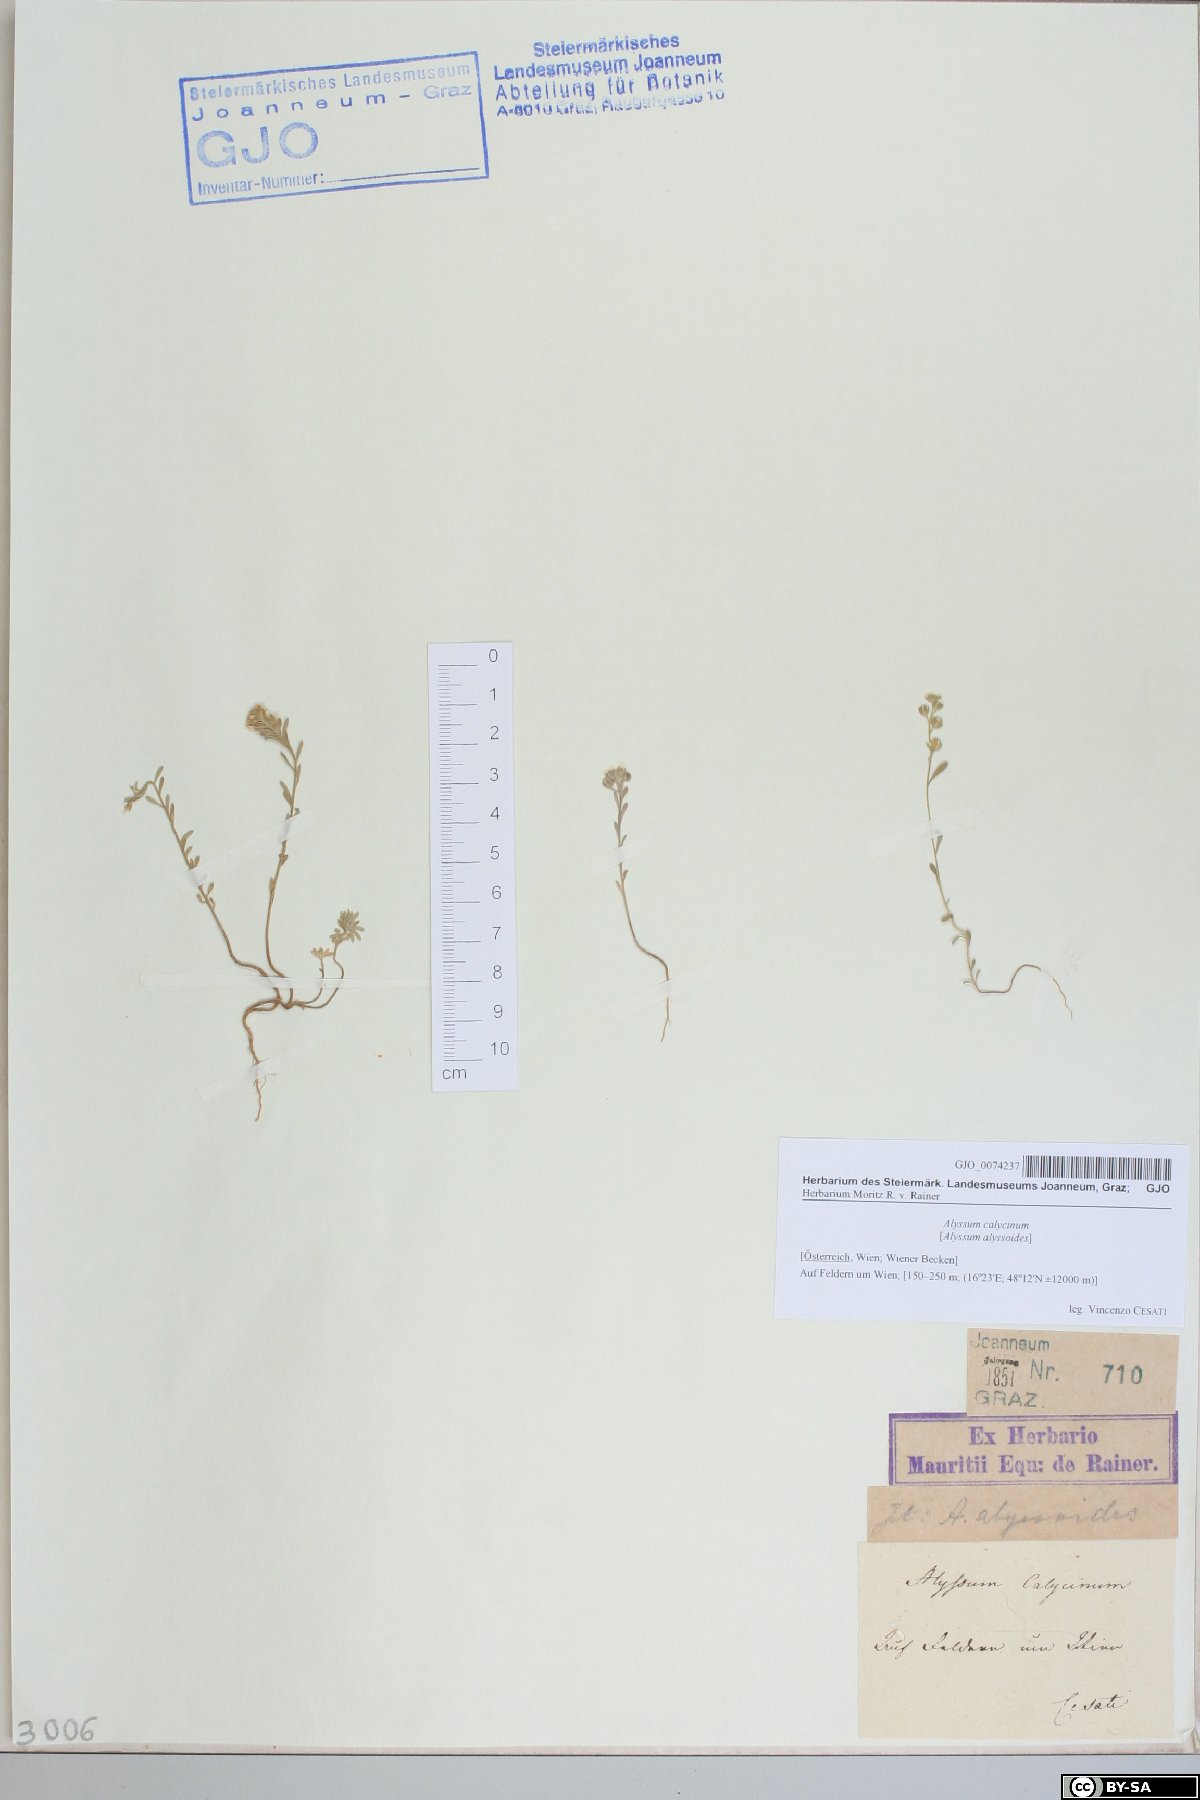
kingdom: Plantae
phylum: Tracheophyta
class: Magnoliopsida
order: Brassicales
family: Brassicaceae
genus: Alyssum
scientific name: Alyssum alyssoides
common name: Small alison
